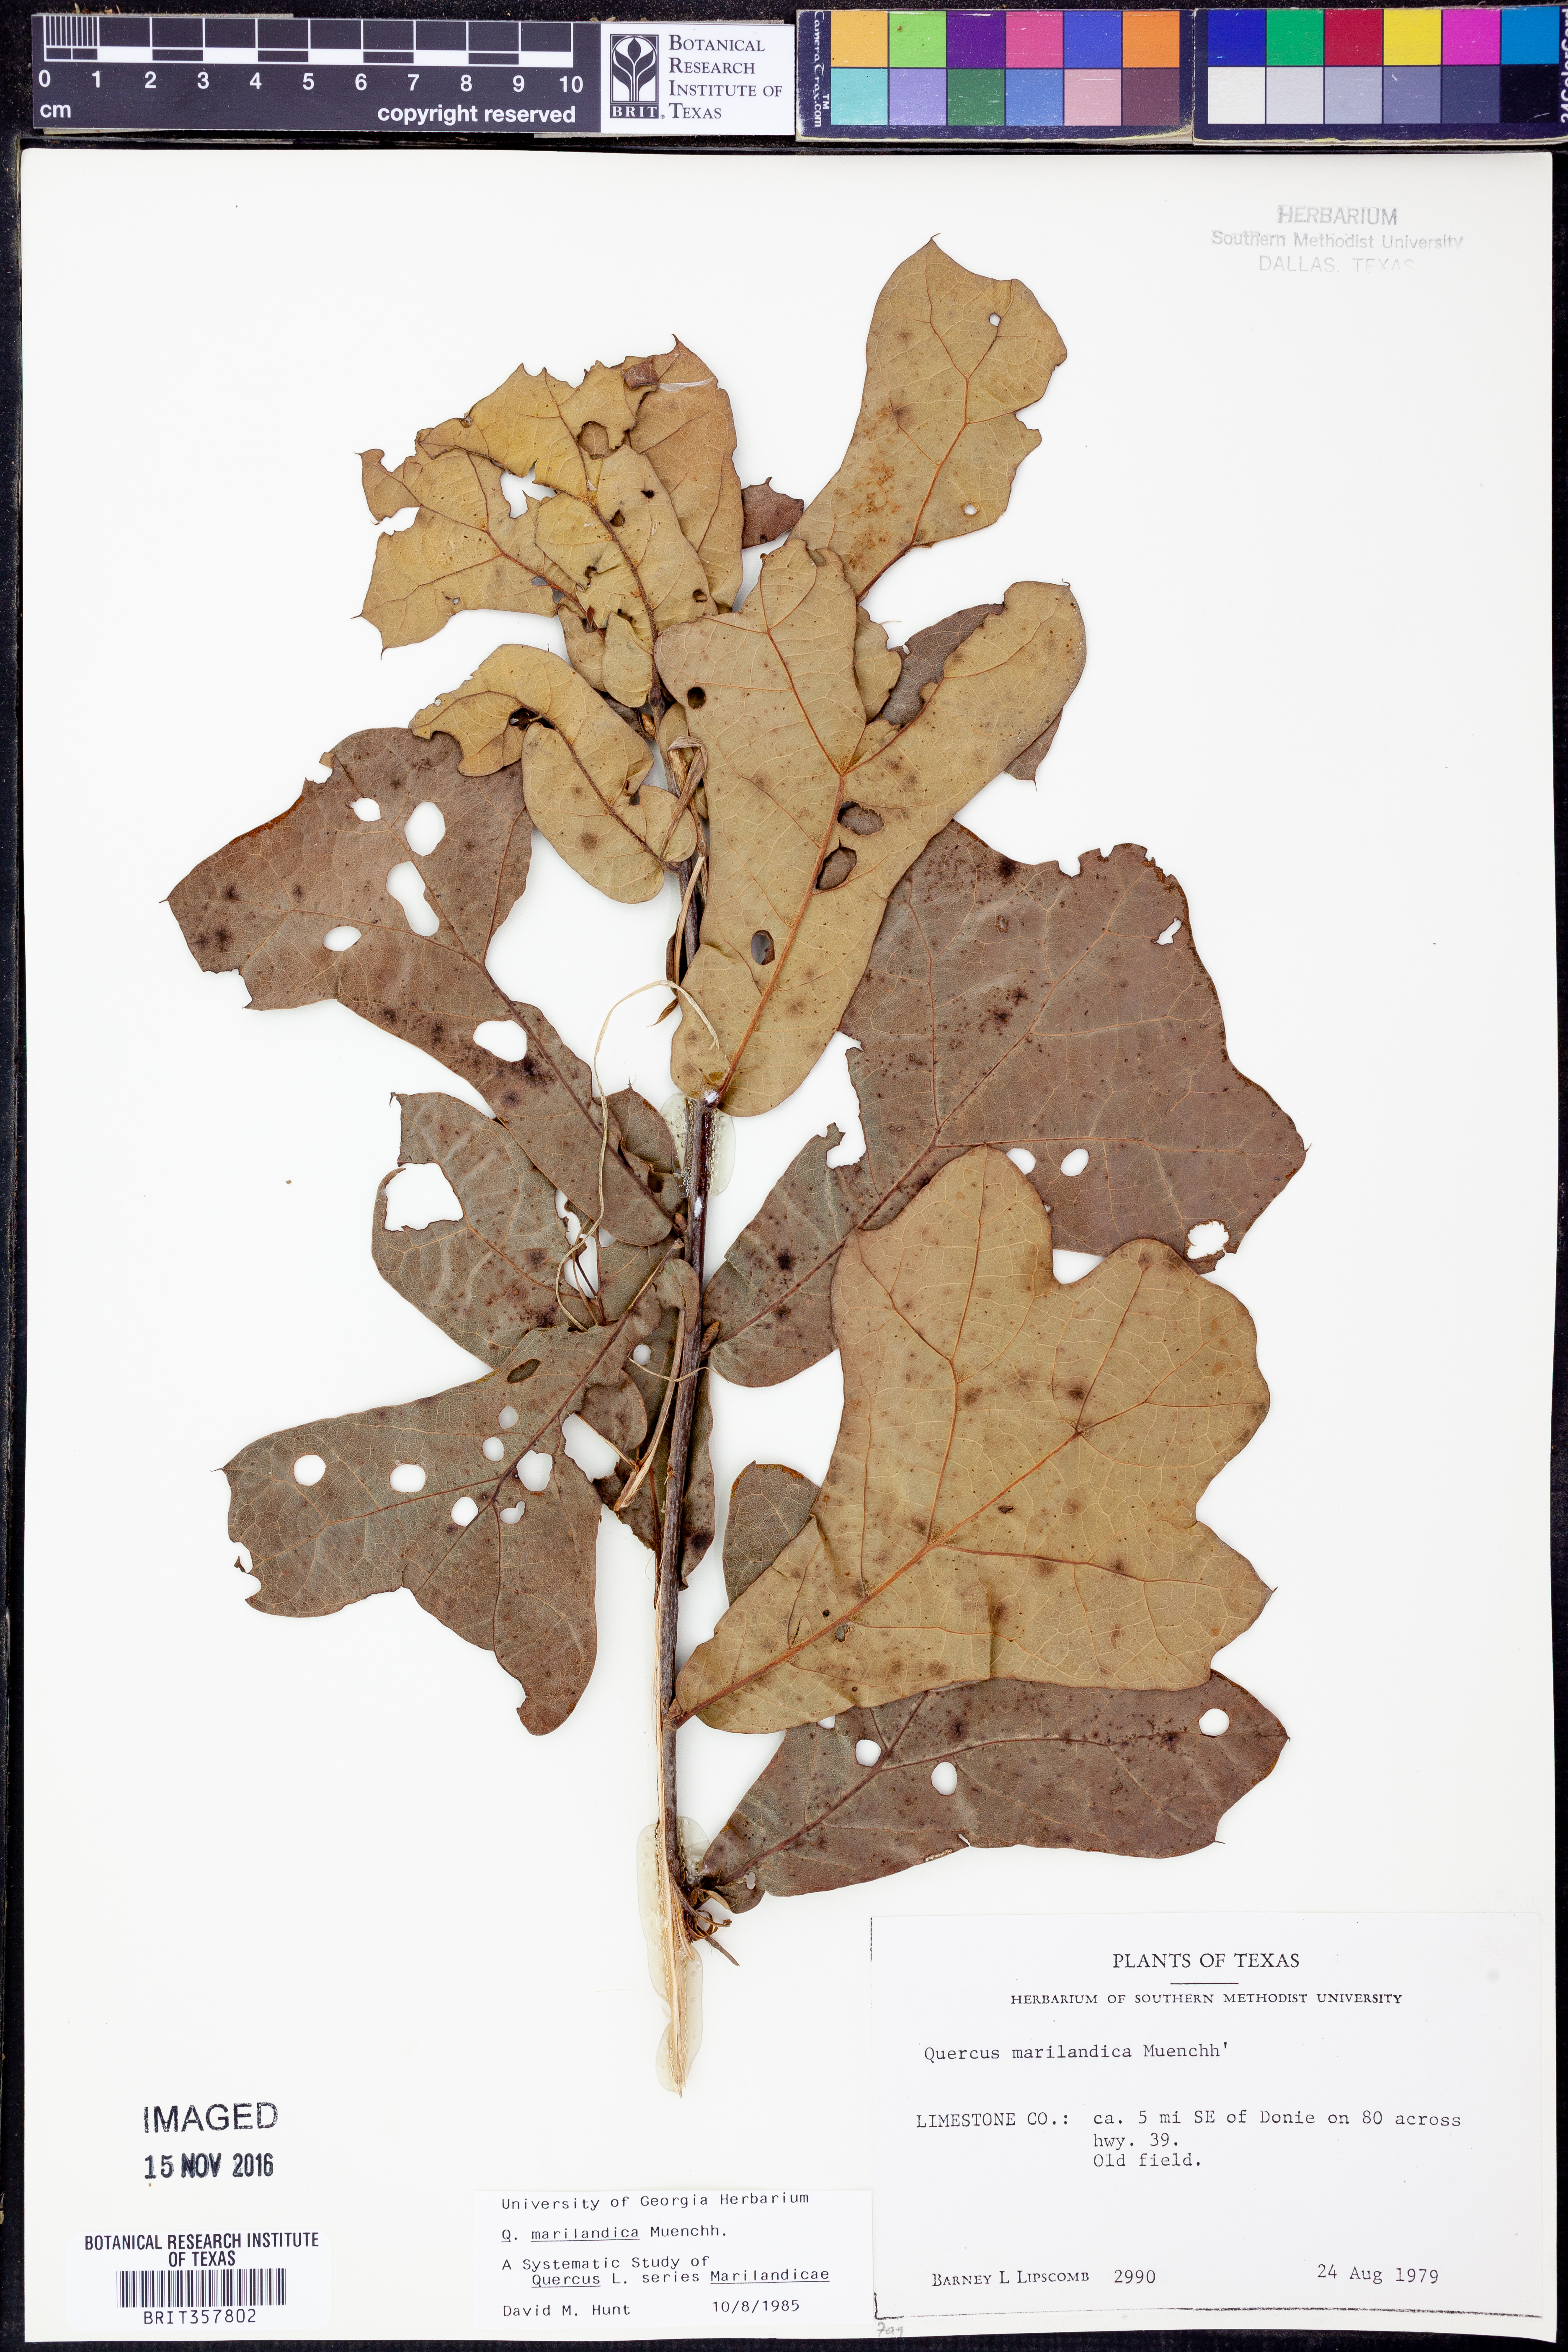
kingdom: Plantae
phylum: Tracheophyta
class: Magnoliopsida
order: Fagales
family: Fagaceae
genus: Quercus
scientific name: Quercus marilandica
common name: Blackjack oak
